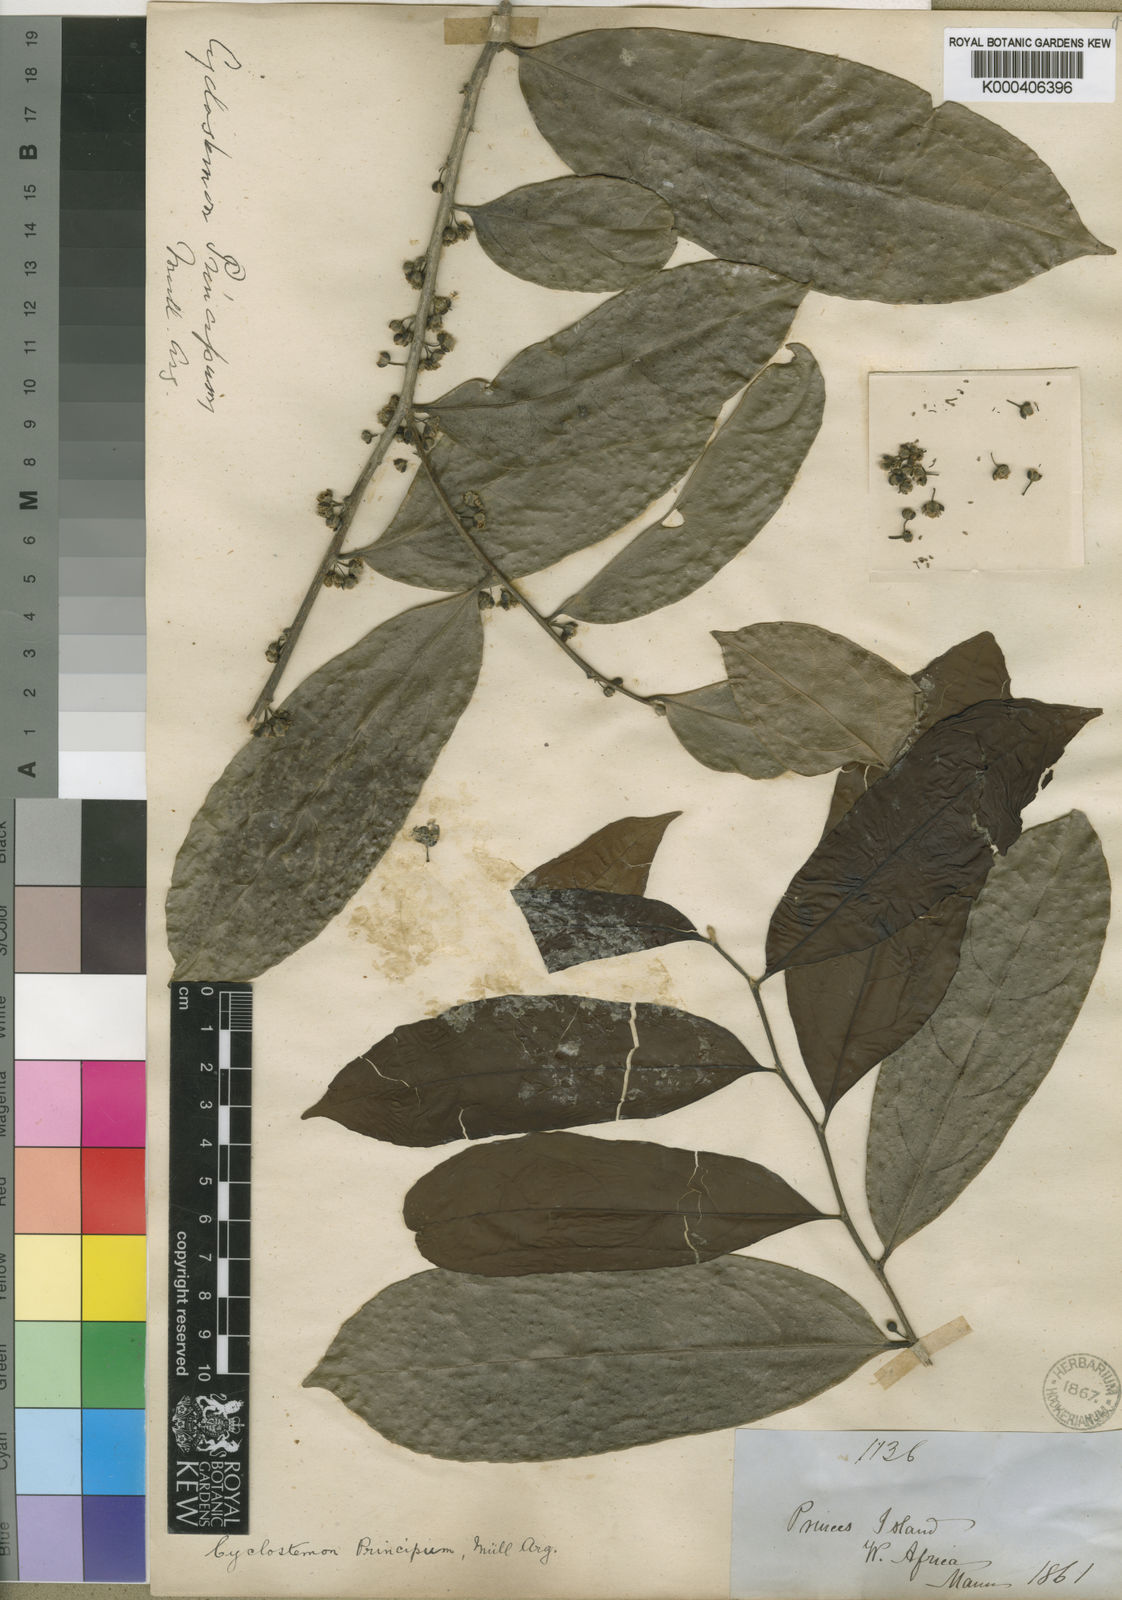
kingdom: Plantae
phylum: Tracheophyta
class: Magnoliopsida
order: Malpighiales
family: Putranjivaceae
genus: Drypetes
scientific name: Drypetes
